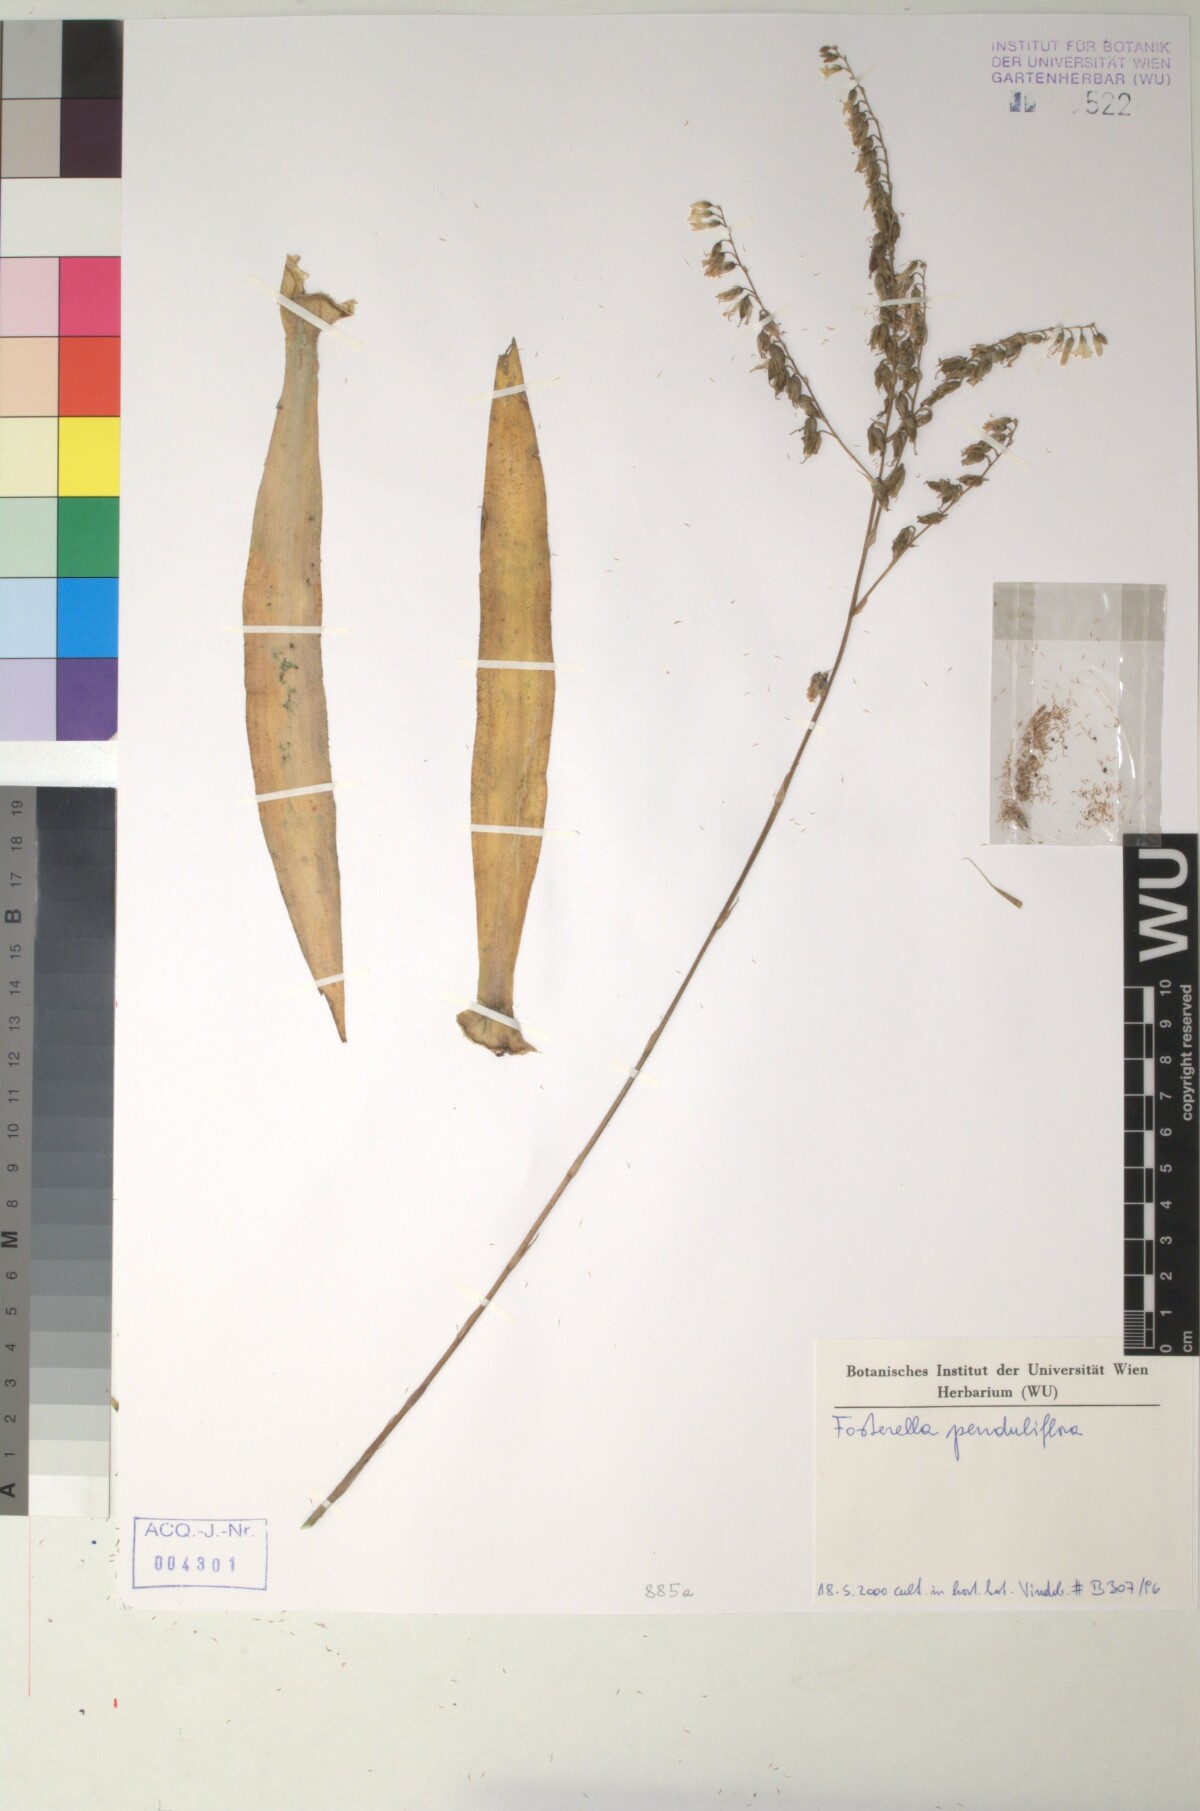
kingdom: Plantae
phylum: Tracheophyta
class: Liliopsida
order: Poales
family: Bromeliaceae
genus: Fosterella
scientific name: Fosterella penduliflora
